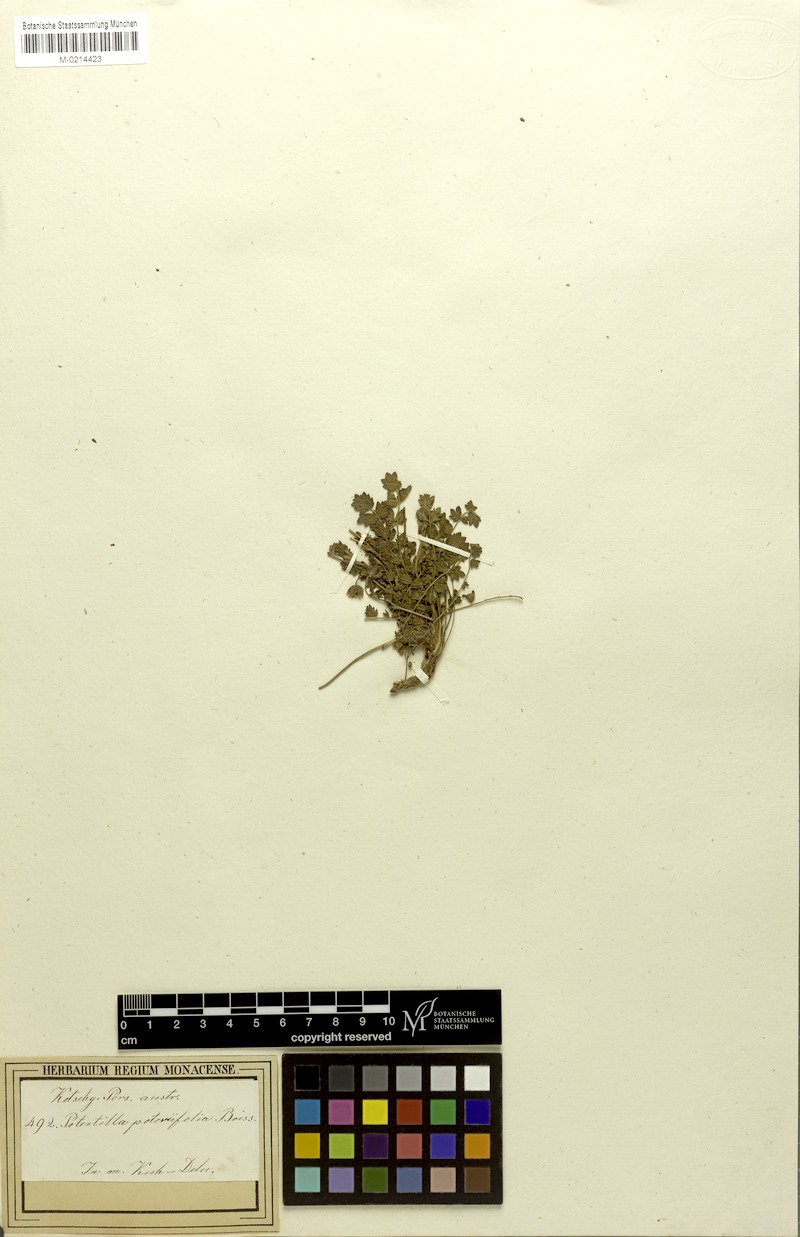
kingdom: Plantae
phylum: Tracheophyta
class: Magnoliopsida
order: Rosales
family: Rosaceae
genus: Drymocallis
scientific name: Drymocallis poteriifolia
